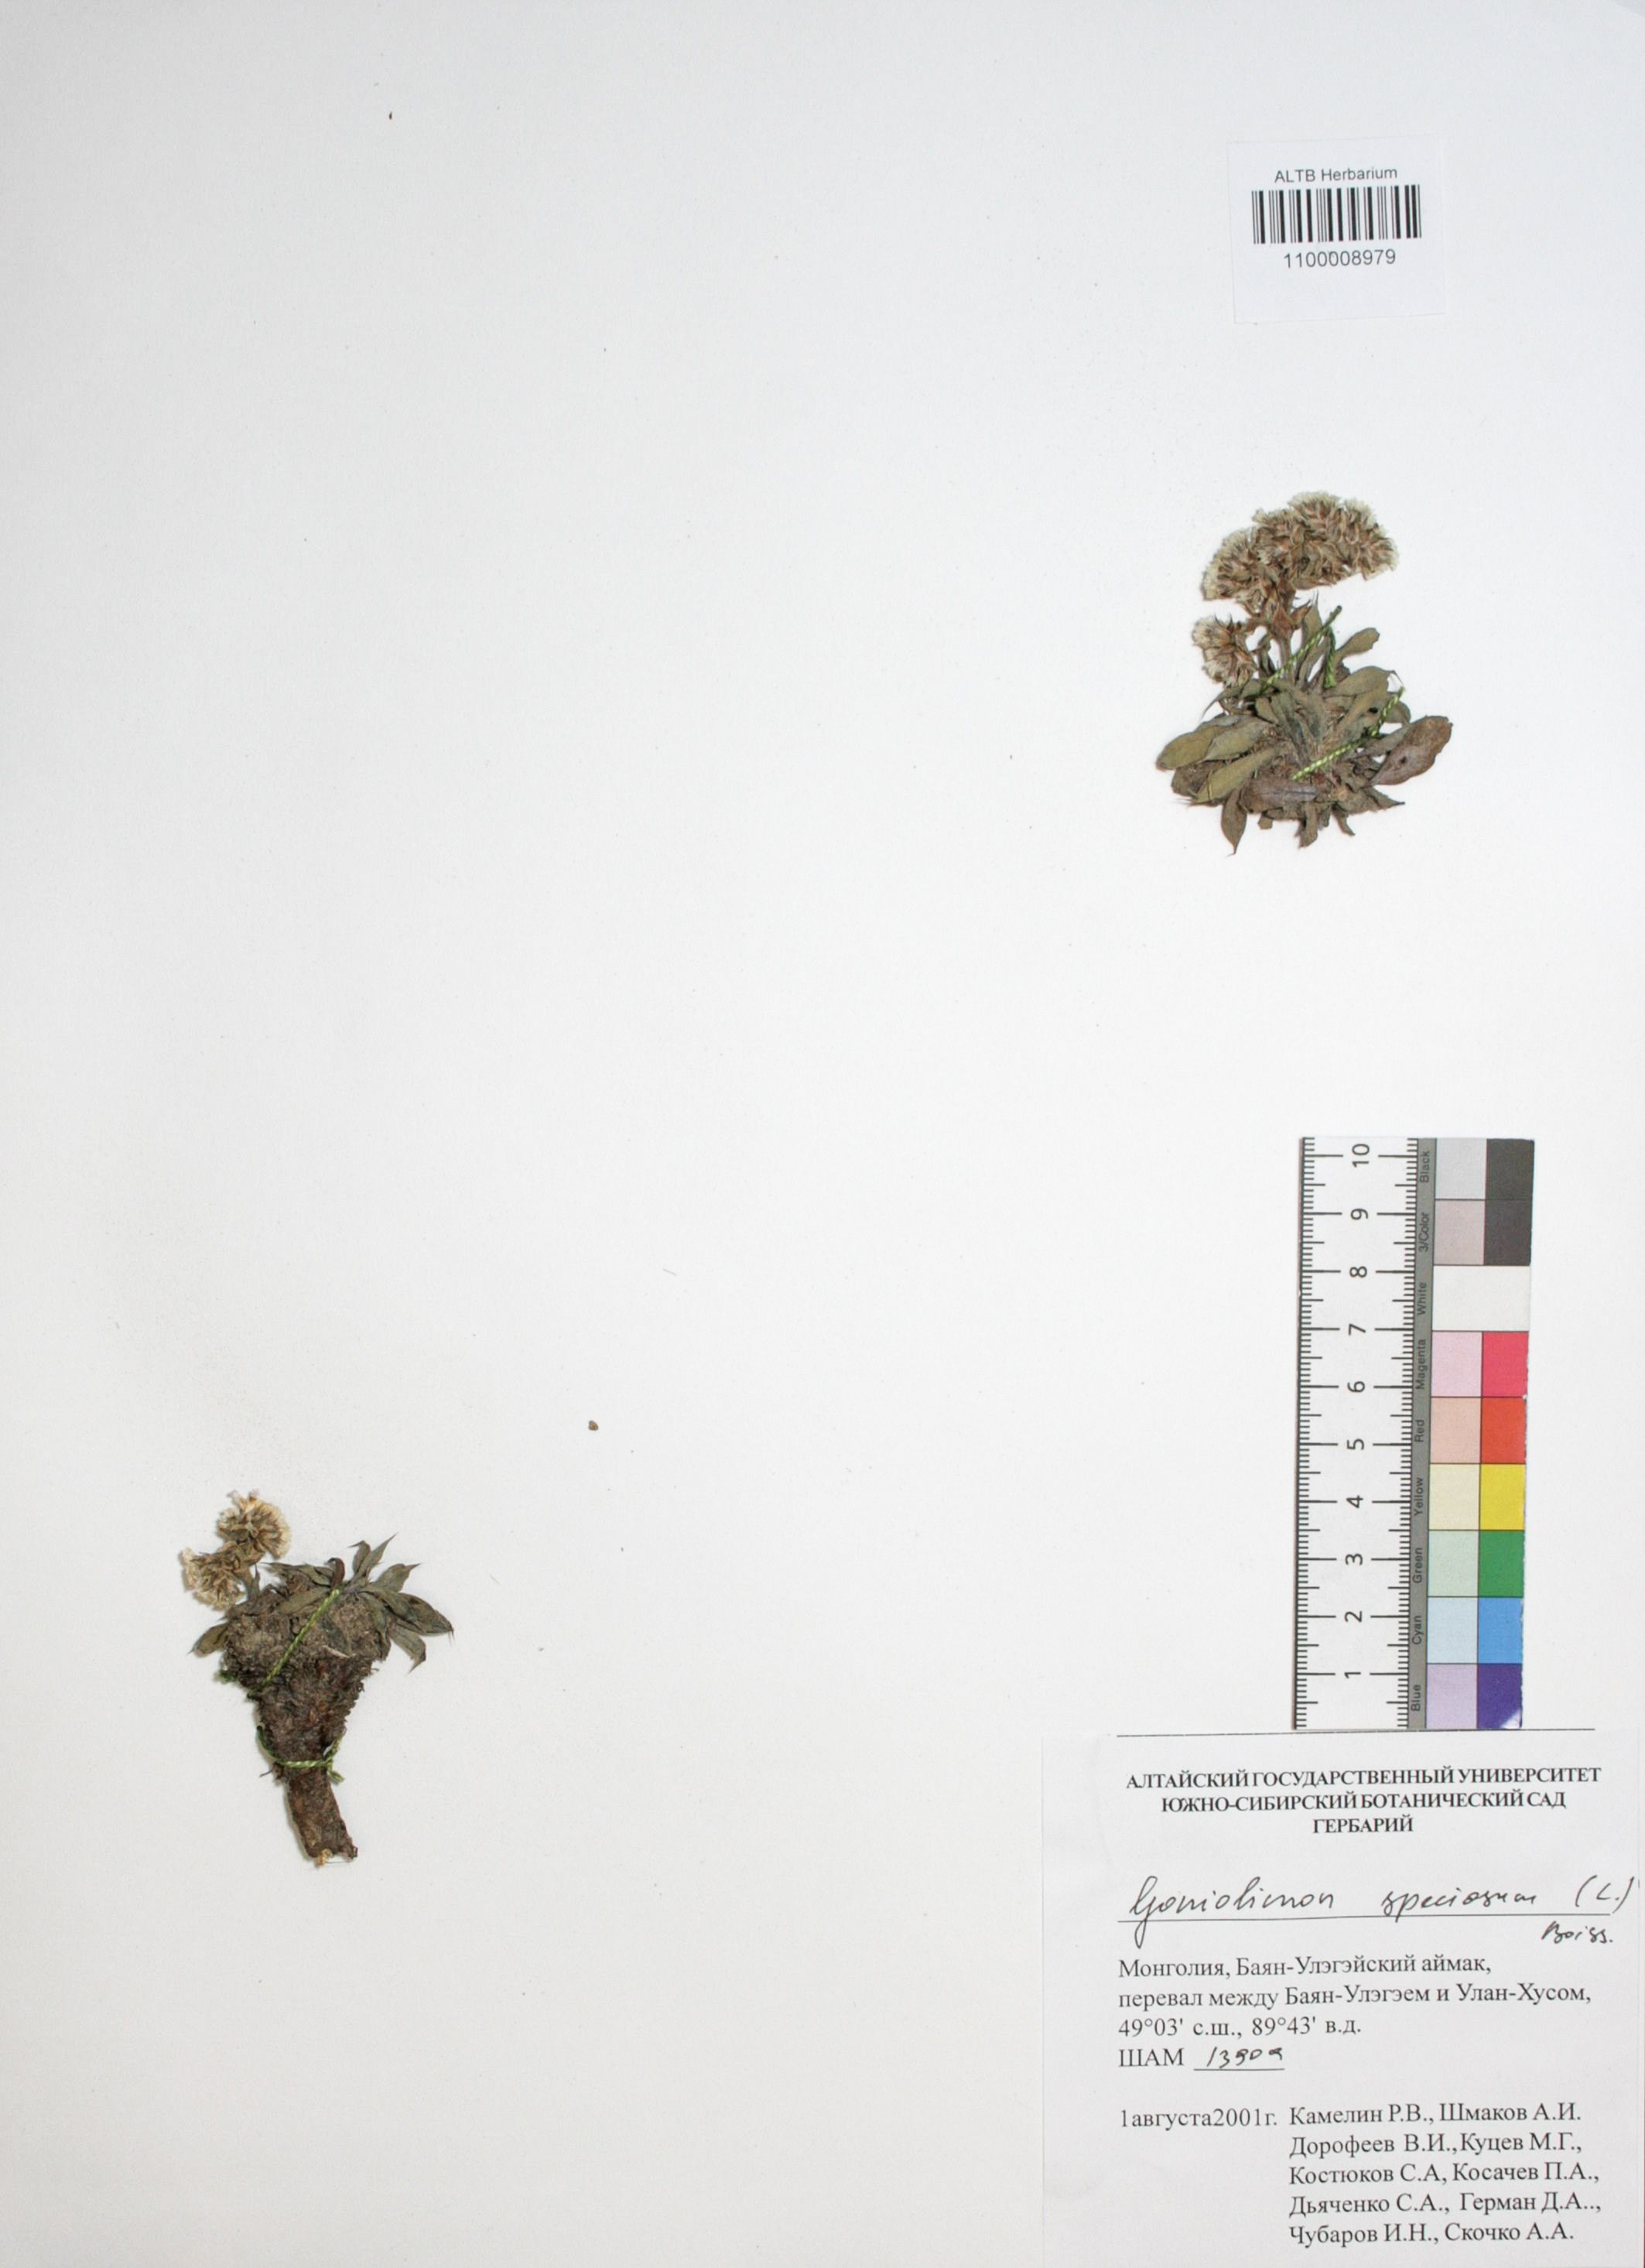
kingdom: Plantae
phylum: Tracheophyta
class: Magnoliopsida
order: Caryophyllales
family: Plumbaginaceae
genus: Goniolimon
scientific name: Goniolimon speciosum
